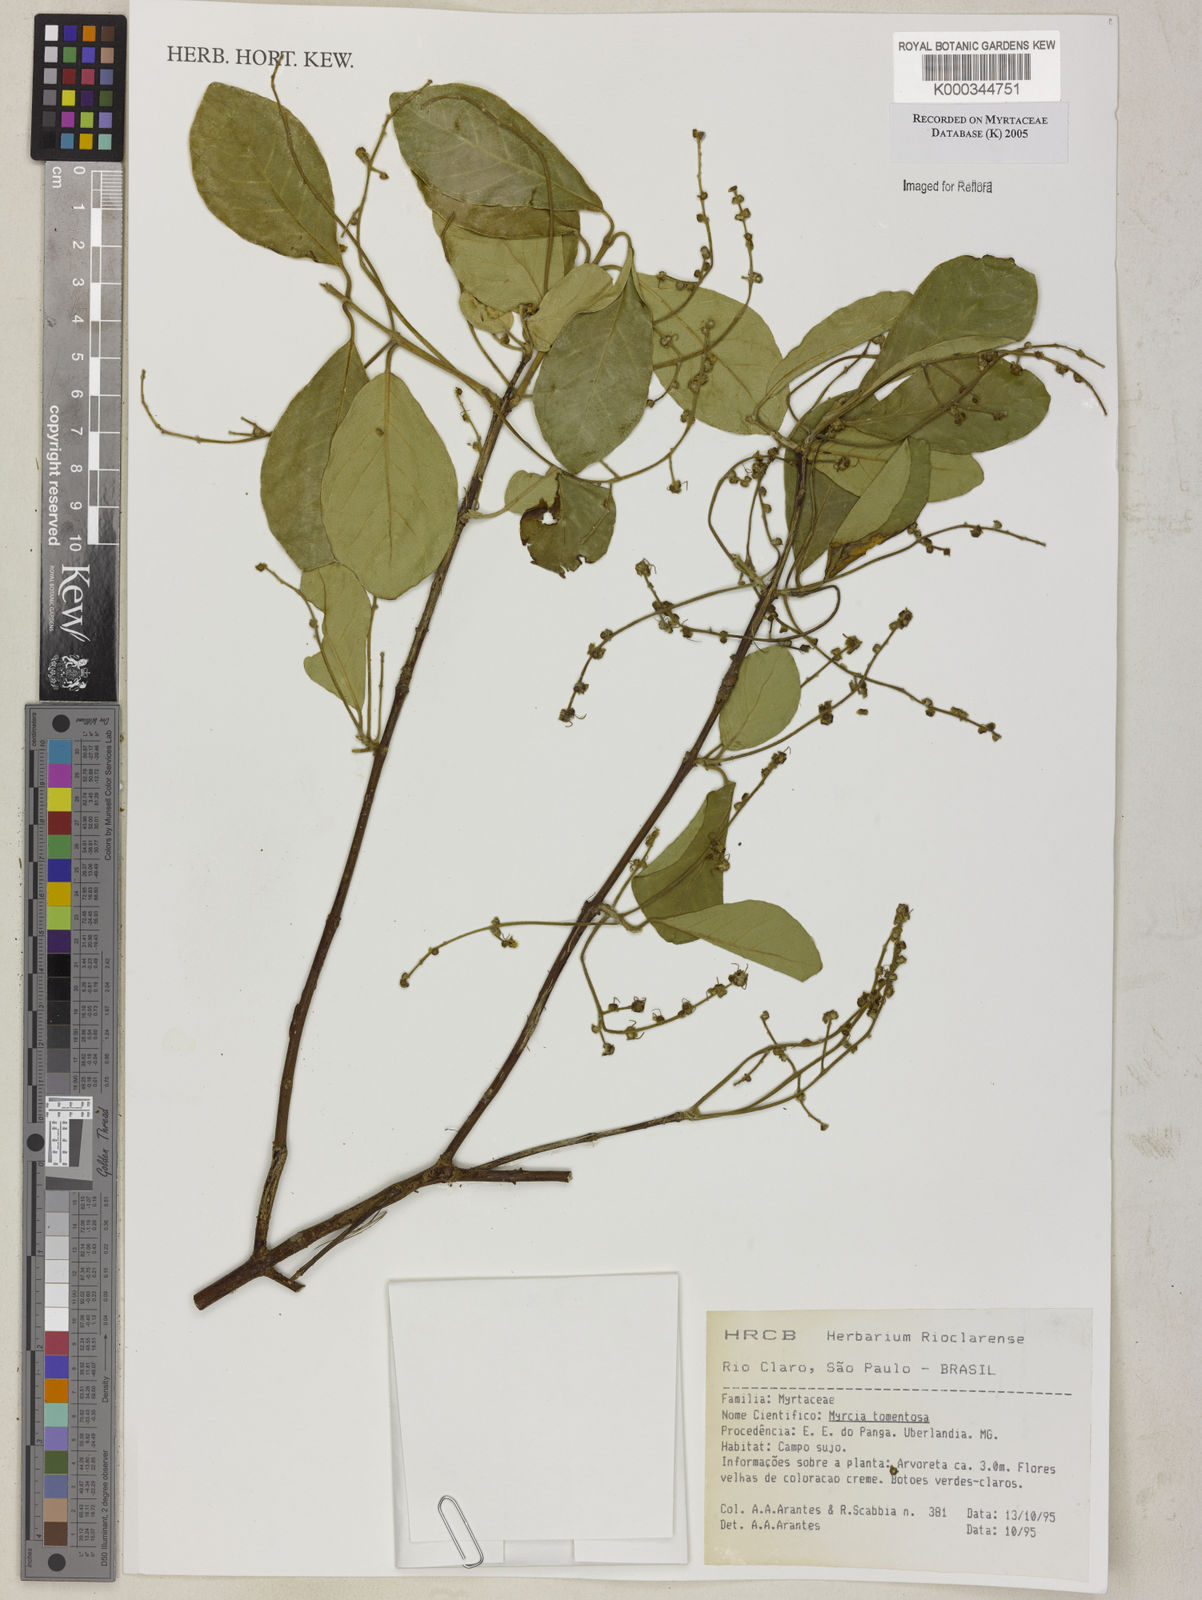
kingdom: Plantae
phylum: Tracheophyta
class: Magnoliopsida
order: Myrtales
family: Myrtaceae
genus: Myrcia
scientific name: Myrcia tomentosa
